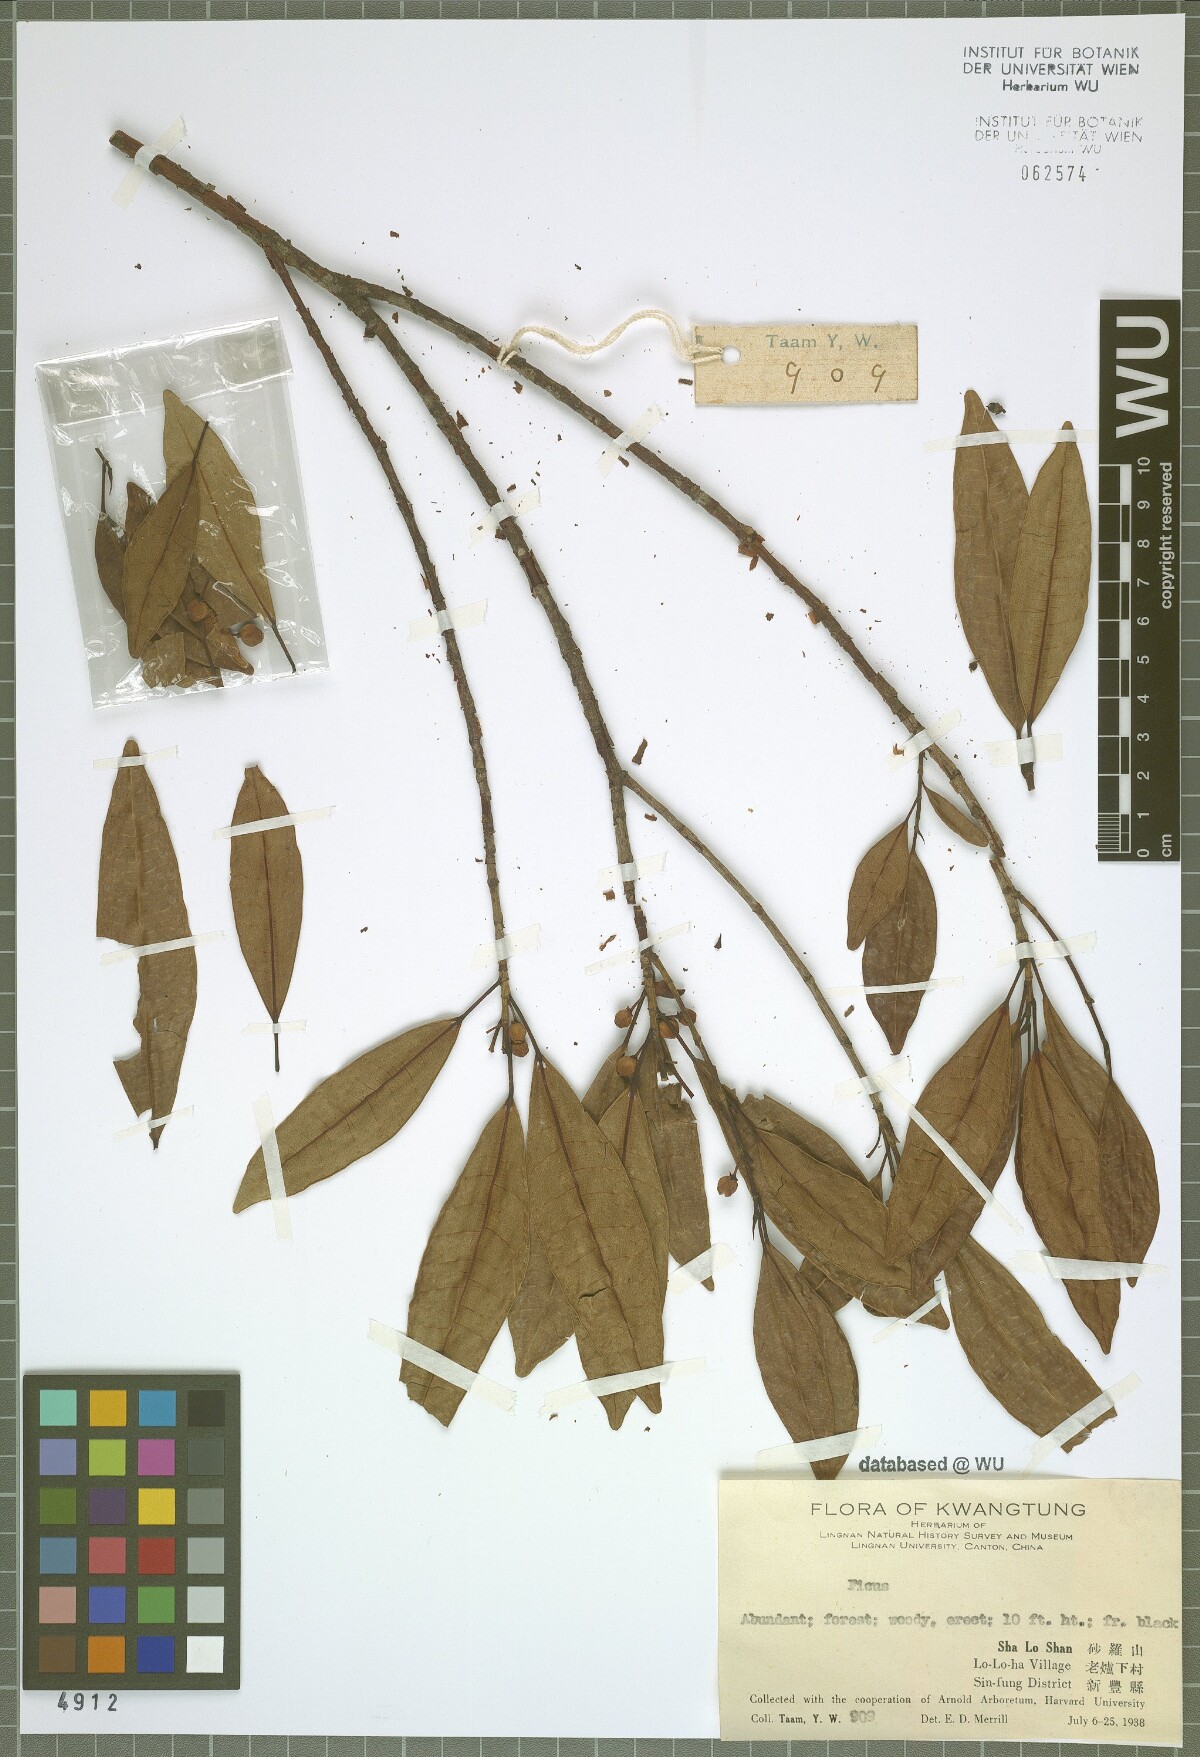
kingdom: Plantae
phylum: Tracheophyta
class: Magnoliopsida
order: Rosales
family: Moraceae
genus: Ficus
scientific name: Ficus
